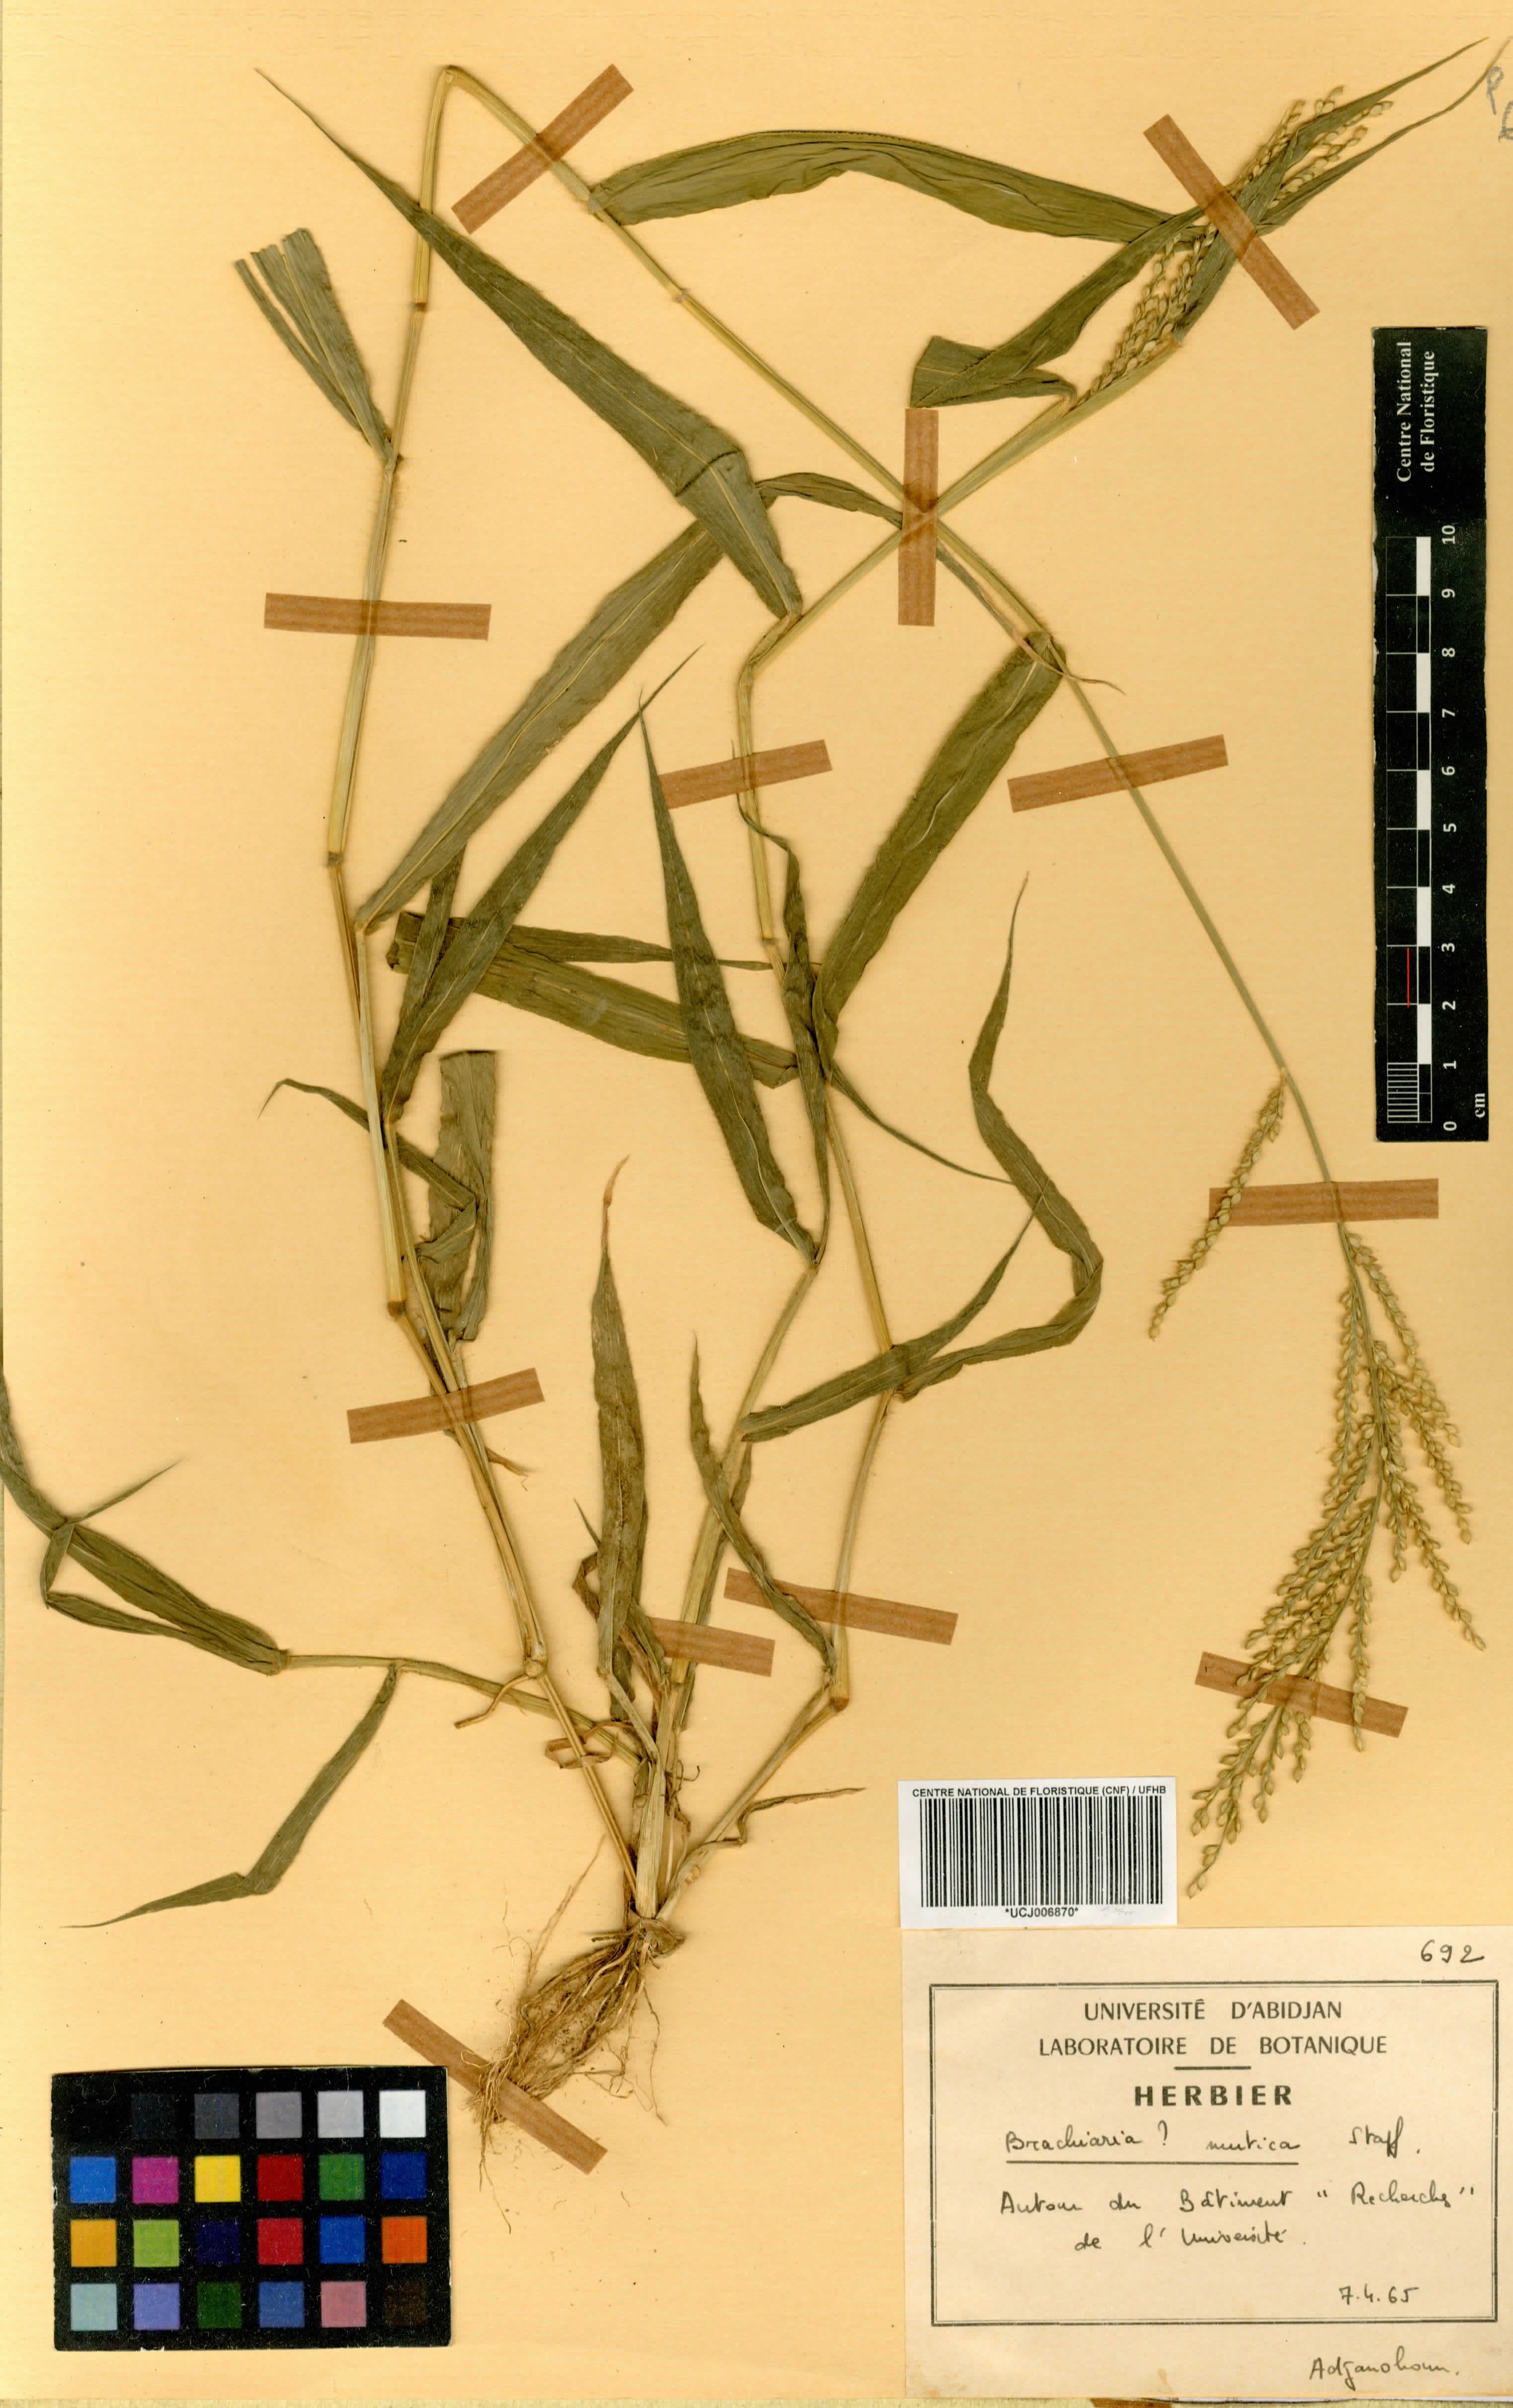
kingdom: Plantae
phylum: Tracheophyta
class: Liliopsida
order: Poales
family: Poaceae
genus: Urochloa
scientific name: Urochloa mutica
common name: Para grass
